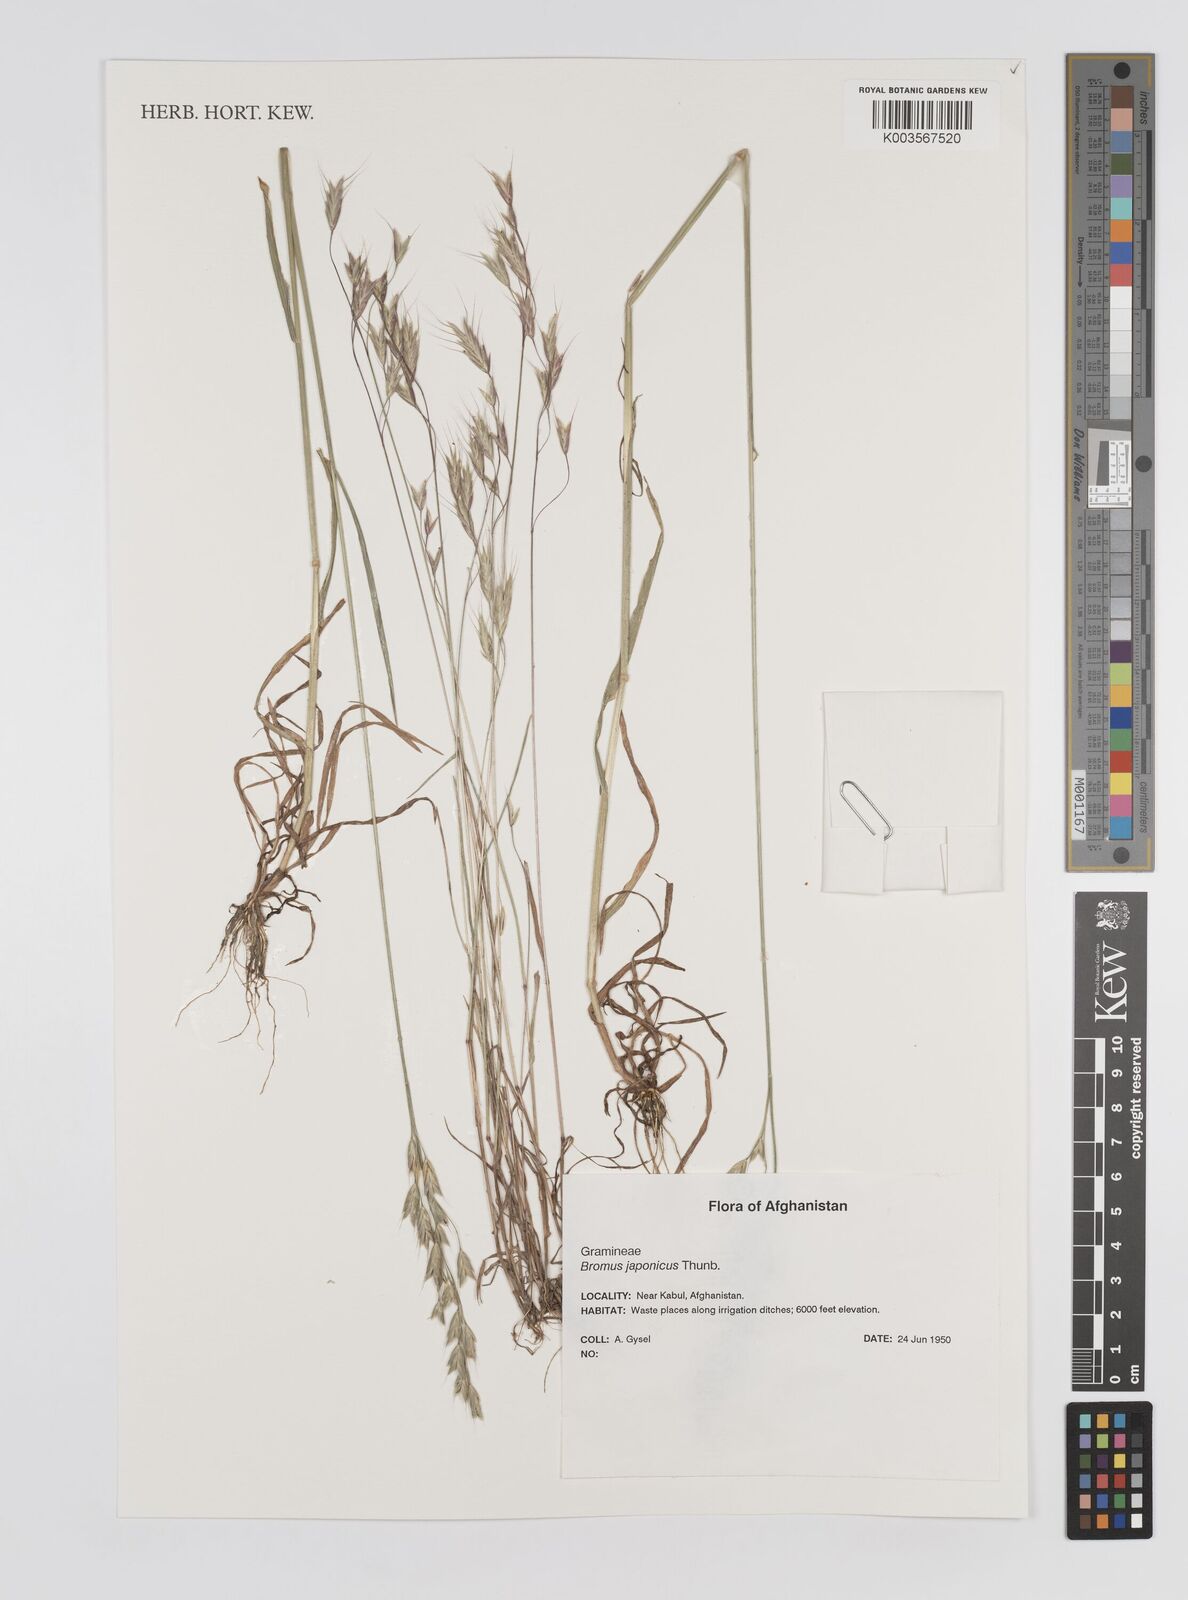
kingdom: Plantae
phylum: Tracheophyta
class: Liliopsida
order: Poales
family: Poaceae
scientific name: Poaceae
